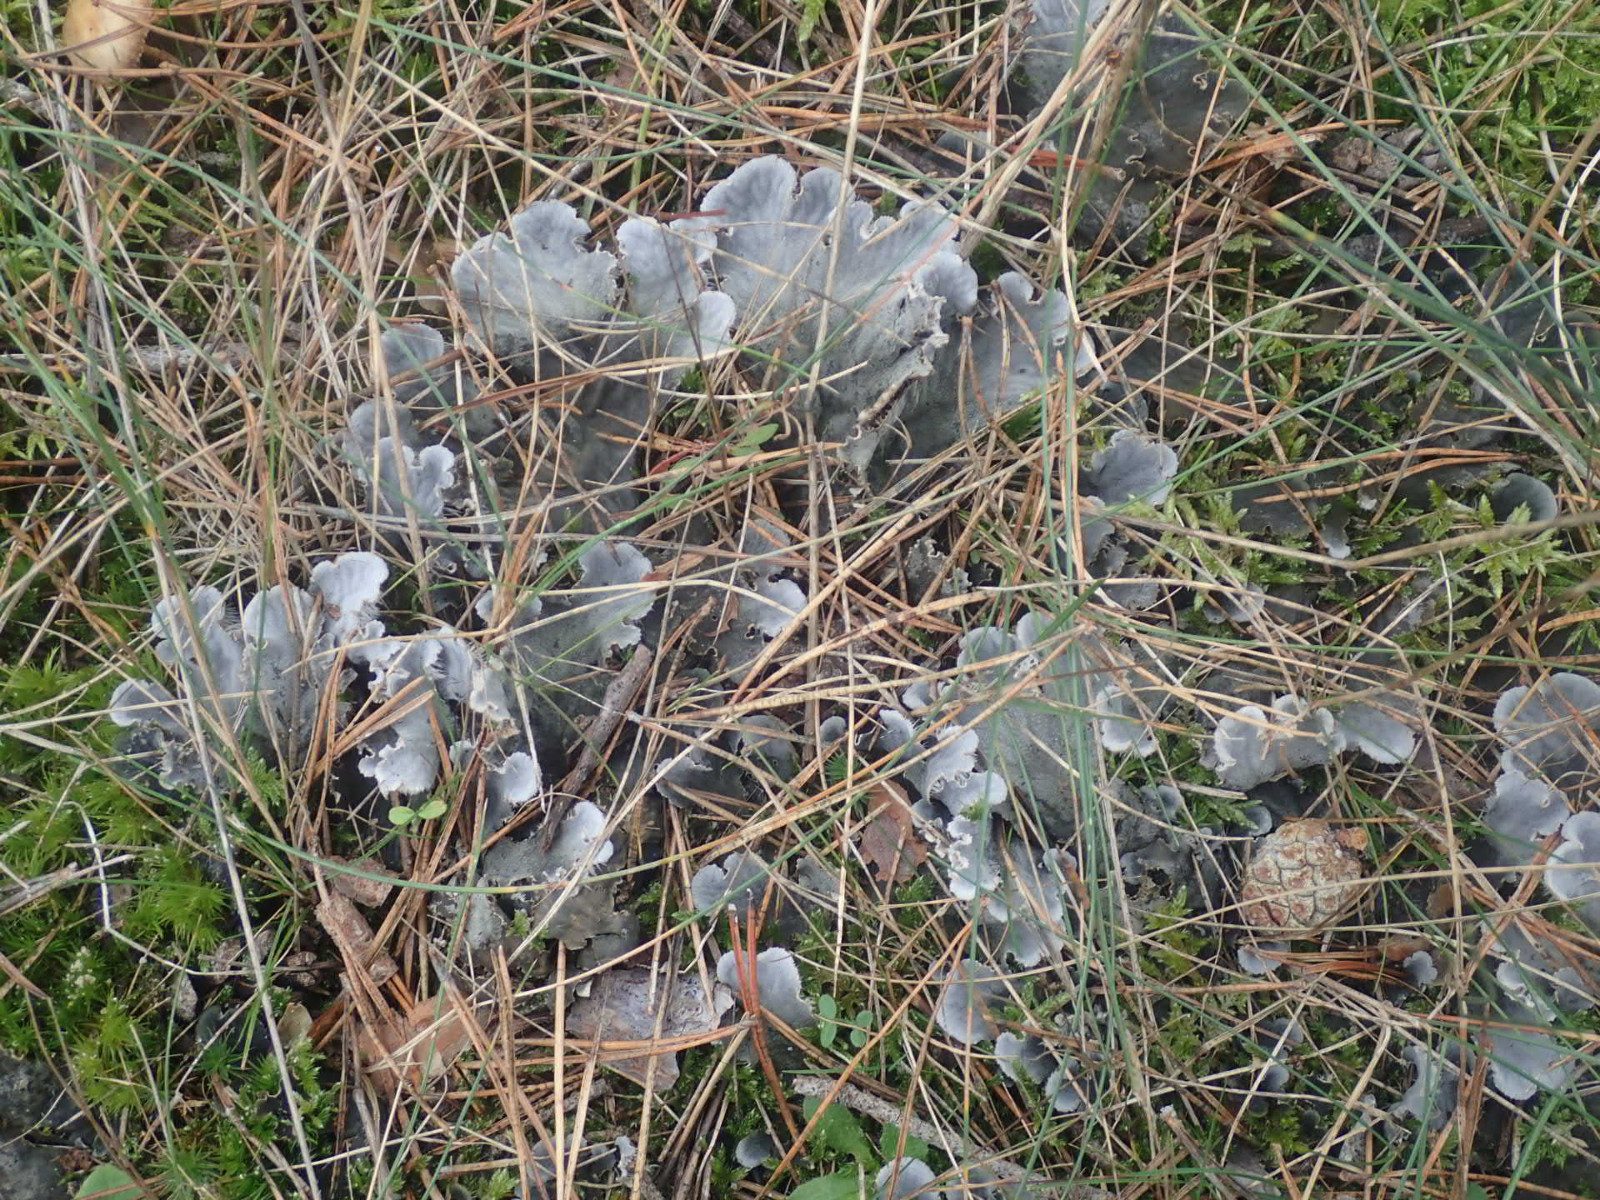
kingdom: Fungi
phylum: Ascomycota
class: Lecanoromycetes
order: Peltigerales
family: Peltigeraceae
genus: Peltigera
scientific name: Peltigera membranacea
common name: tynd skjoldlav
